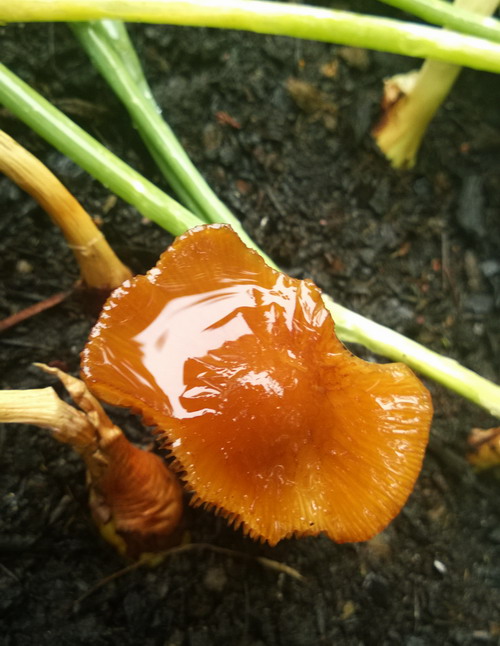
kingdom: Fungi
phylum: Basidiomycota
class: Agaricomycetes
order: Agaricales
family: Bolbitiaceae
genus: Conocybe
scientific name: Conocybe aurea
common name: gylden keglehat
